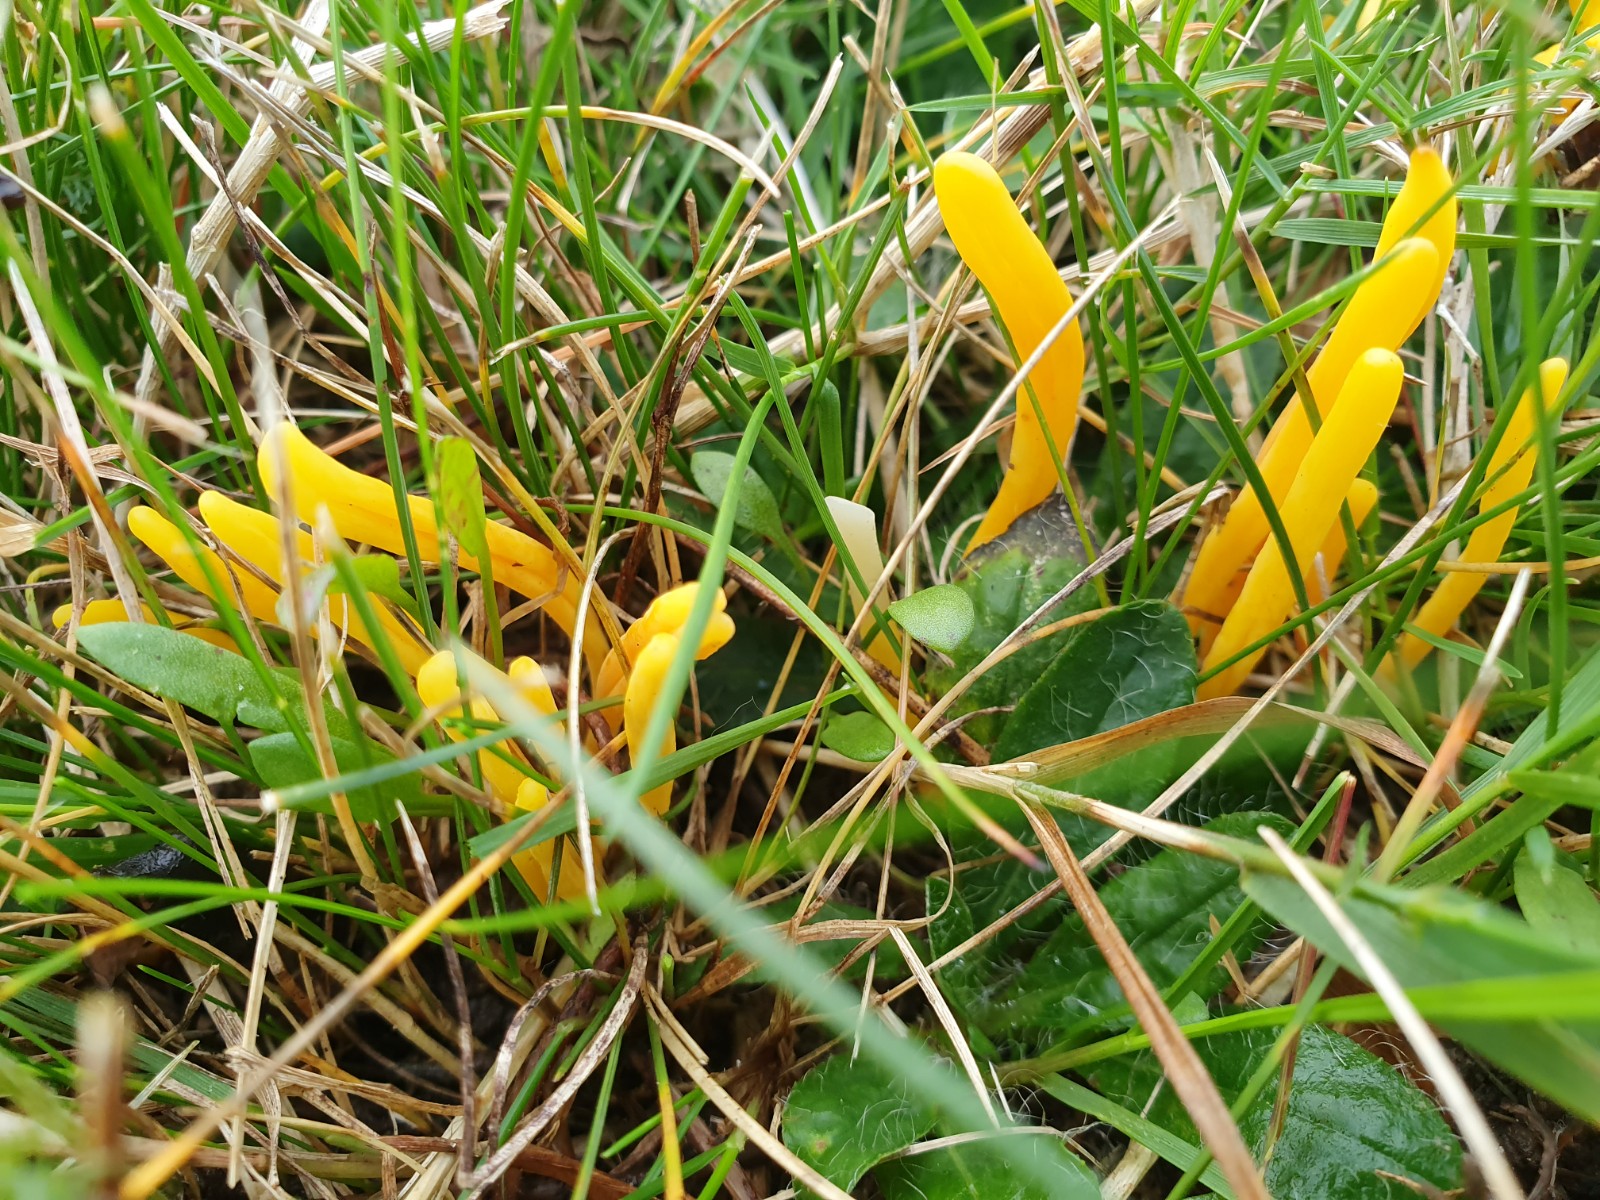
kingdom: Fungi
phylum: Basidiomycota
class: Agaricomycetes
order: Agaricales
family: Clavariaceae
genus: Clavulinopsis
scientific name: Clavulinopsis
